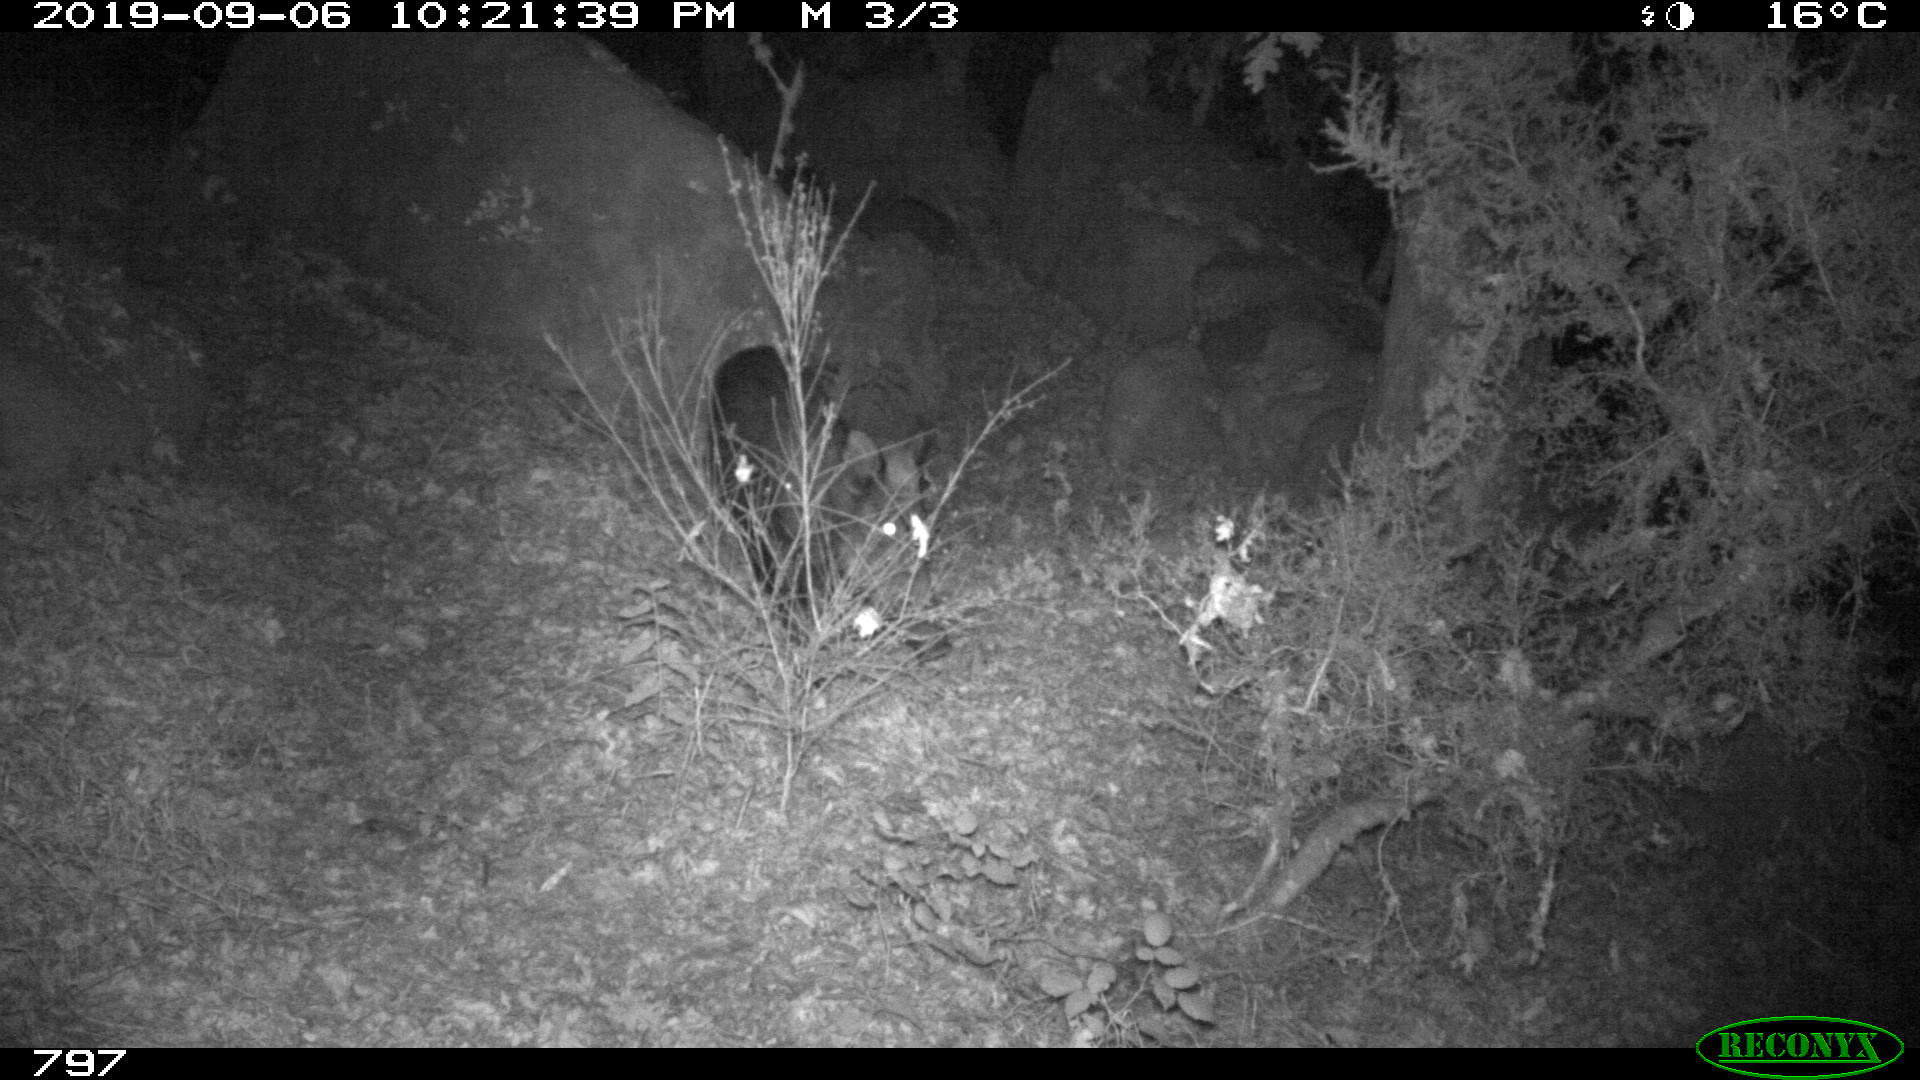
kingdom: Animalia
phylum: Chordata
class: Mammalia
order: Artiodactyla
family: Suidae
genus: Sus
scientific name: Sus scrofa
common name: Wild boar
